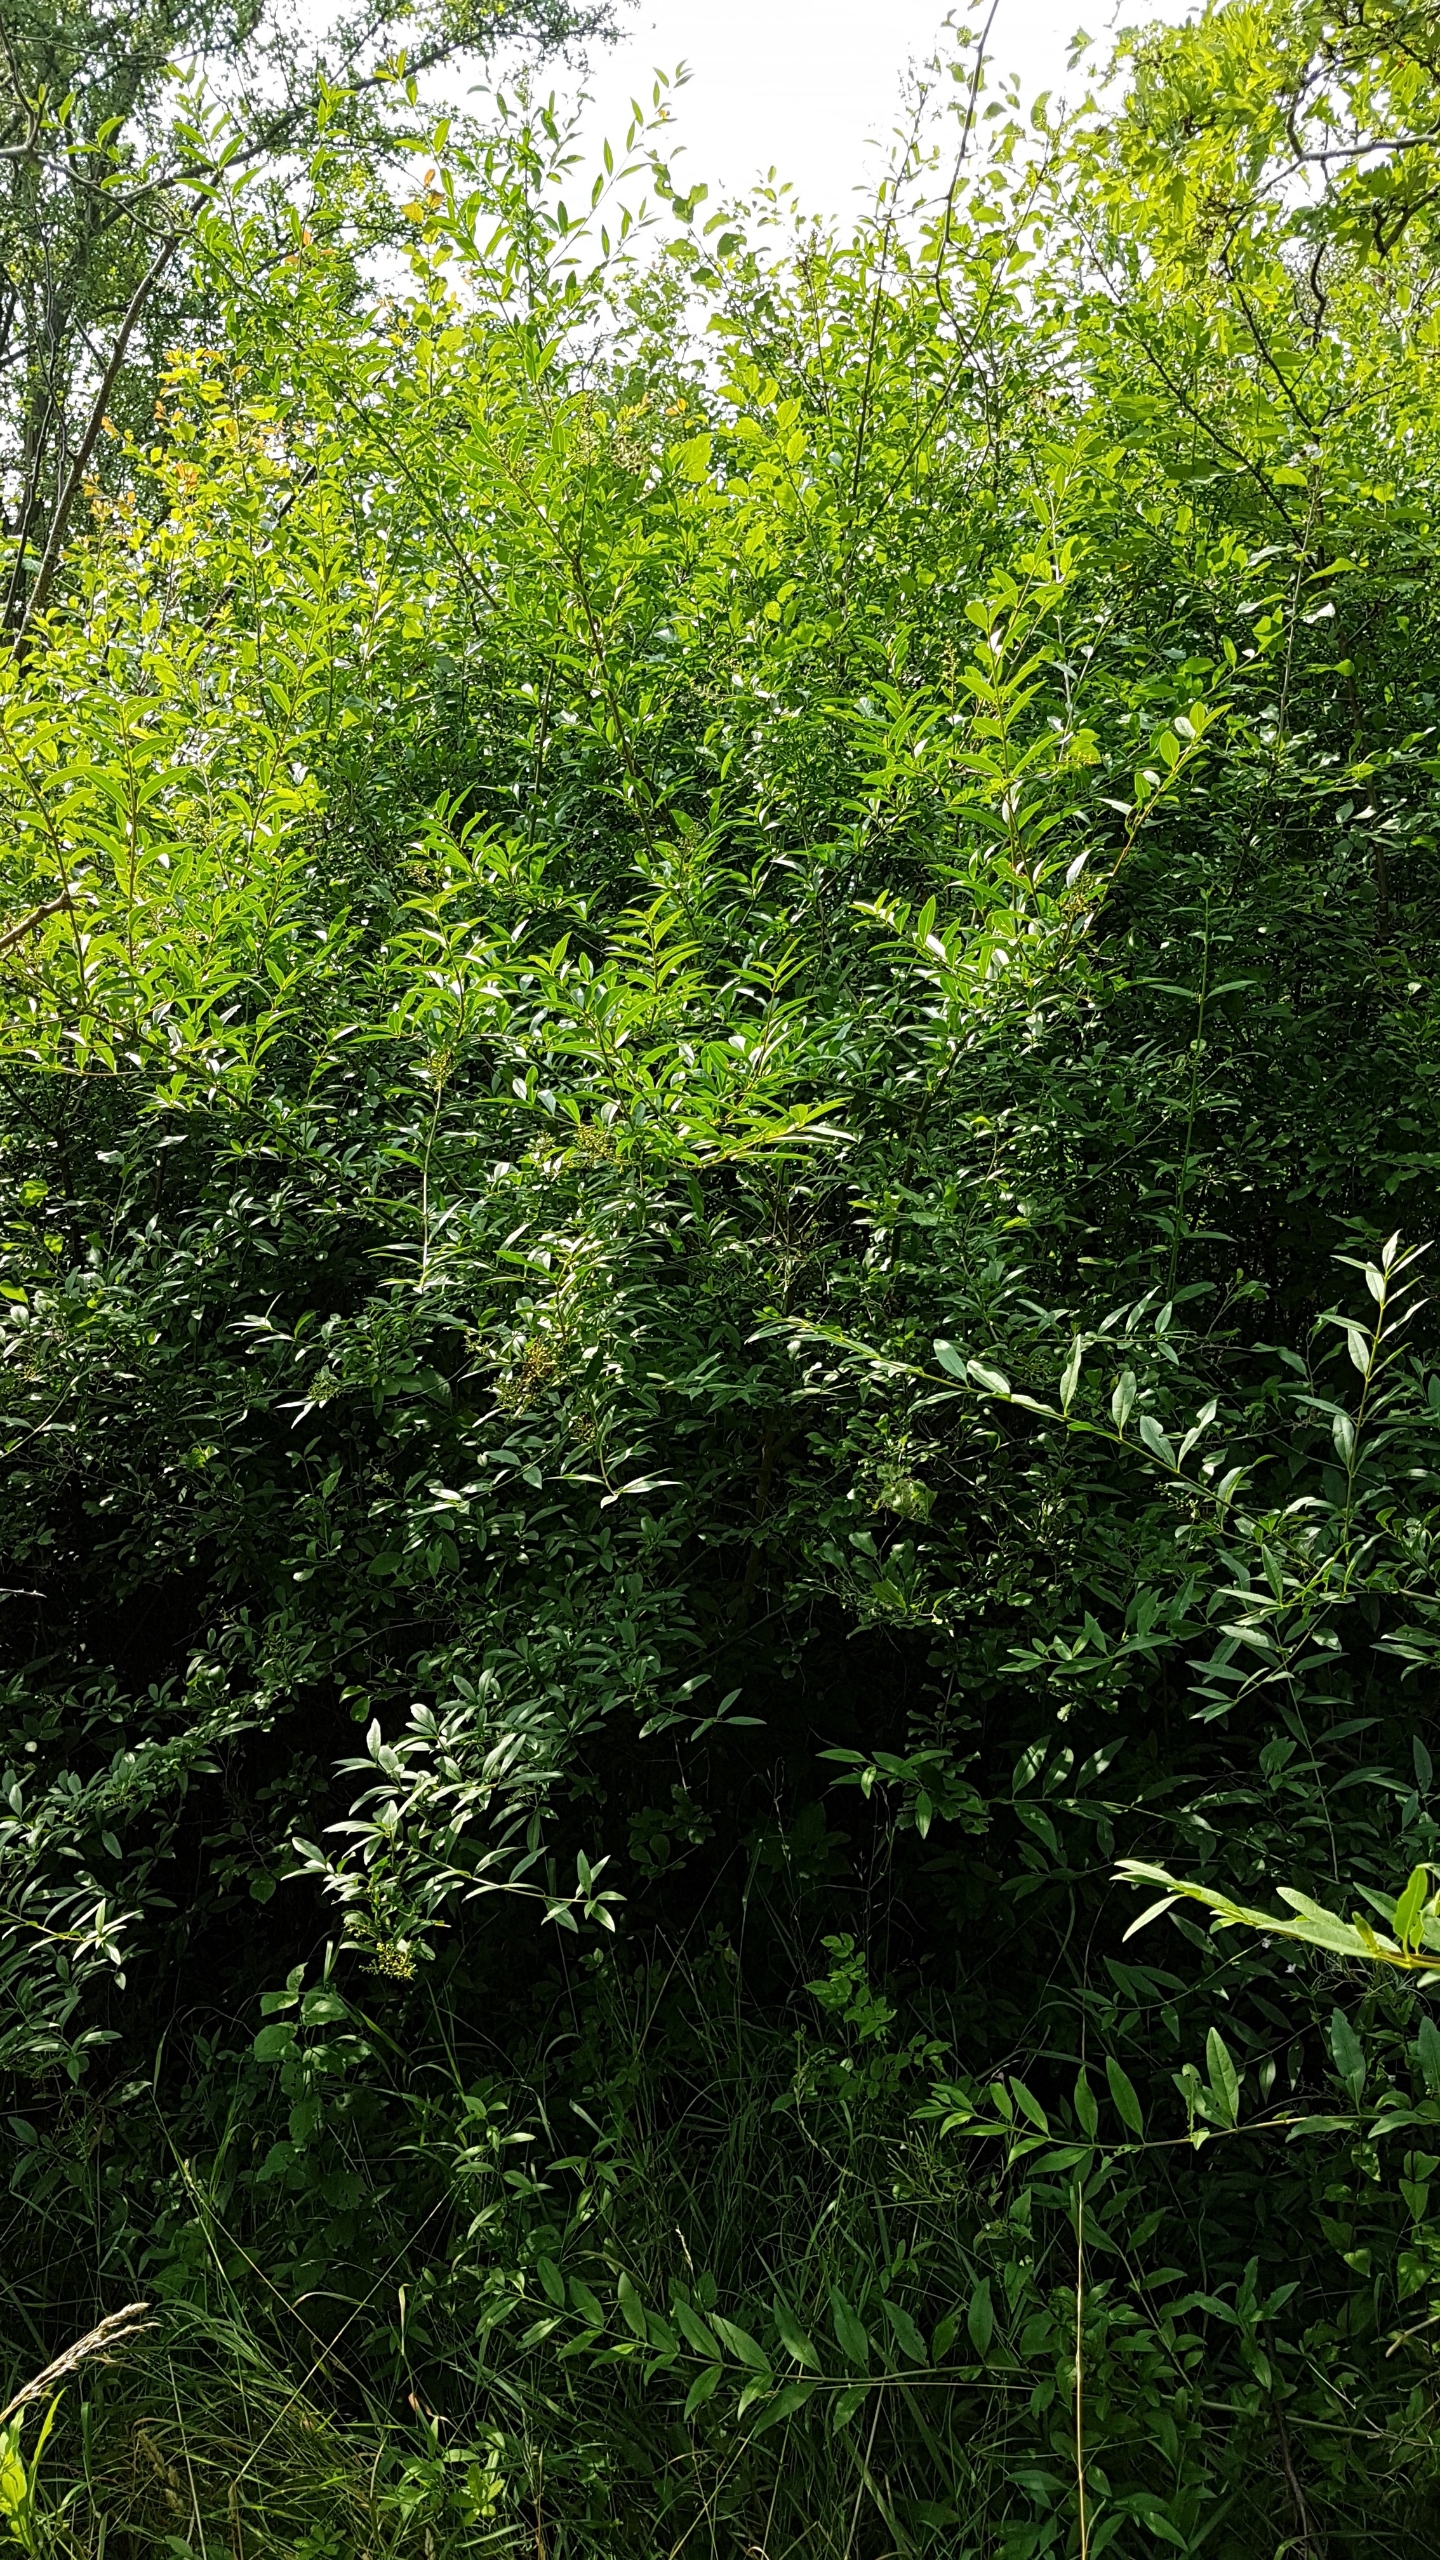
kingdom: Plantae
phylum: Tracheophyta
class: Magnoliopsida
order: Lamiales
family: Oleaceae
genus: Ligustrum
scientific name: Ligustrum vulgare
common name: Liguster
